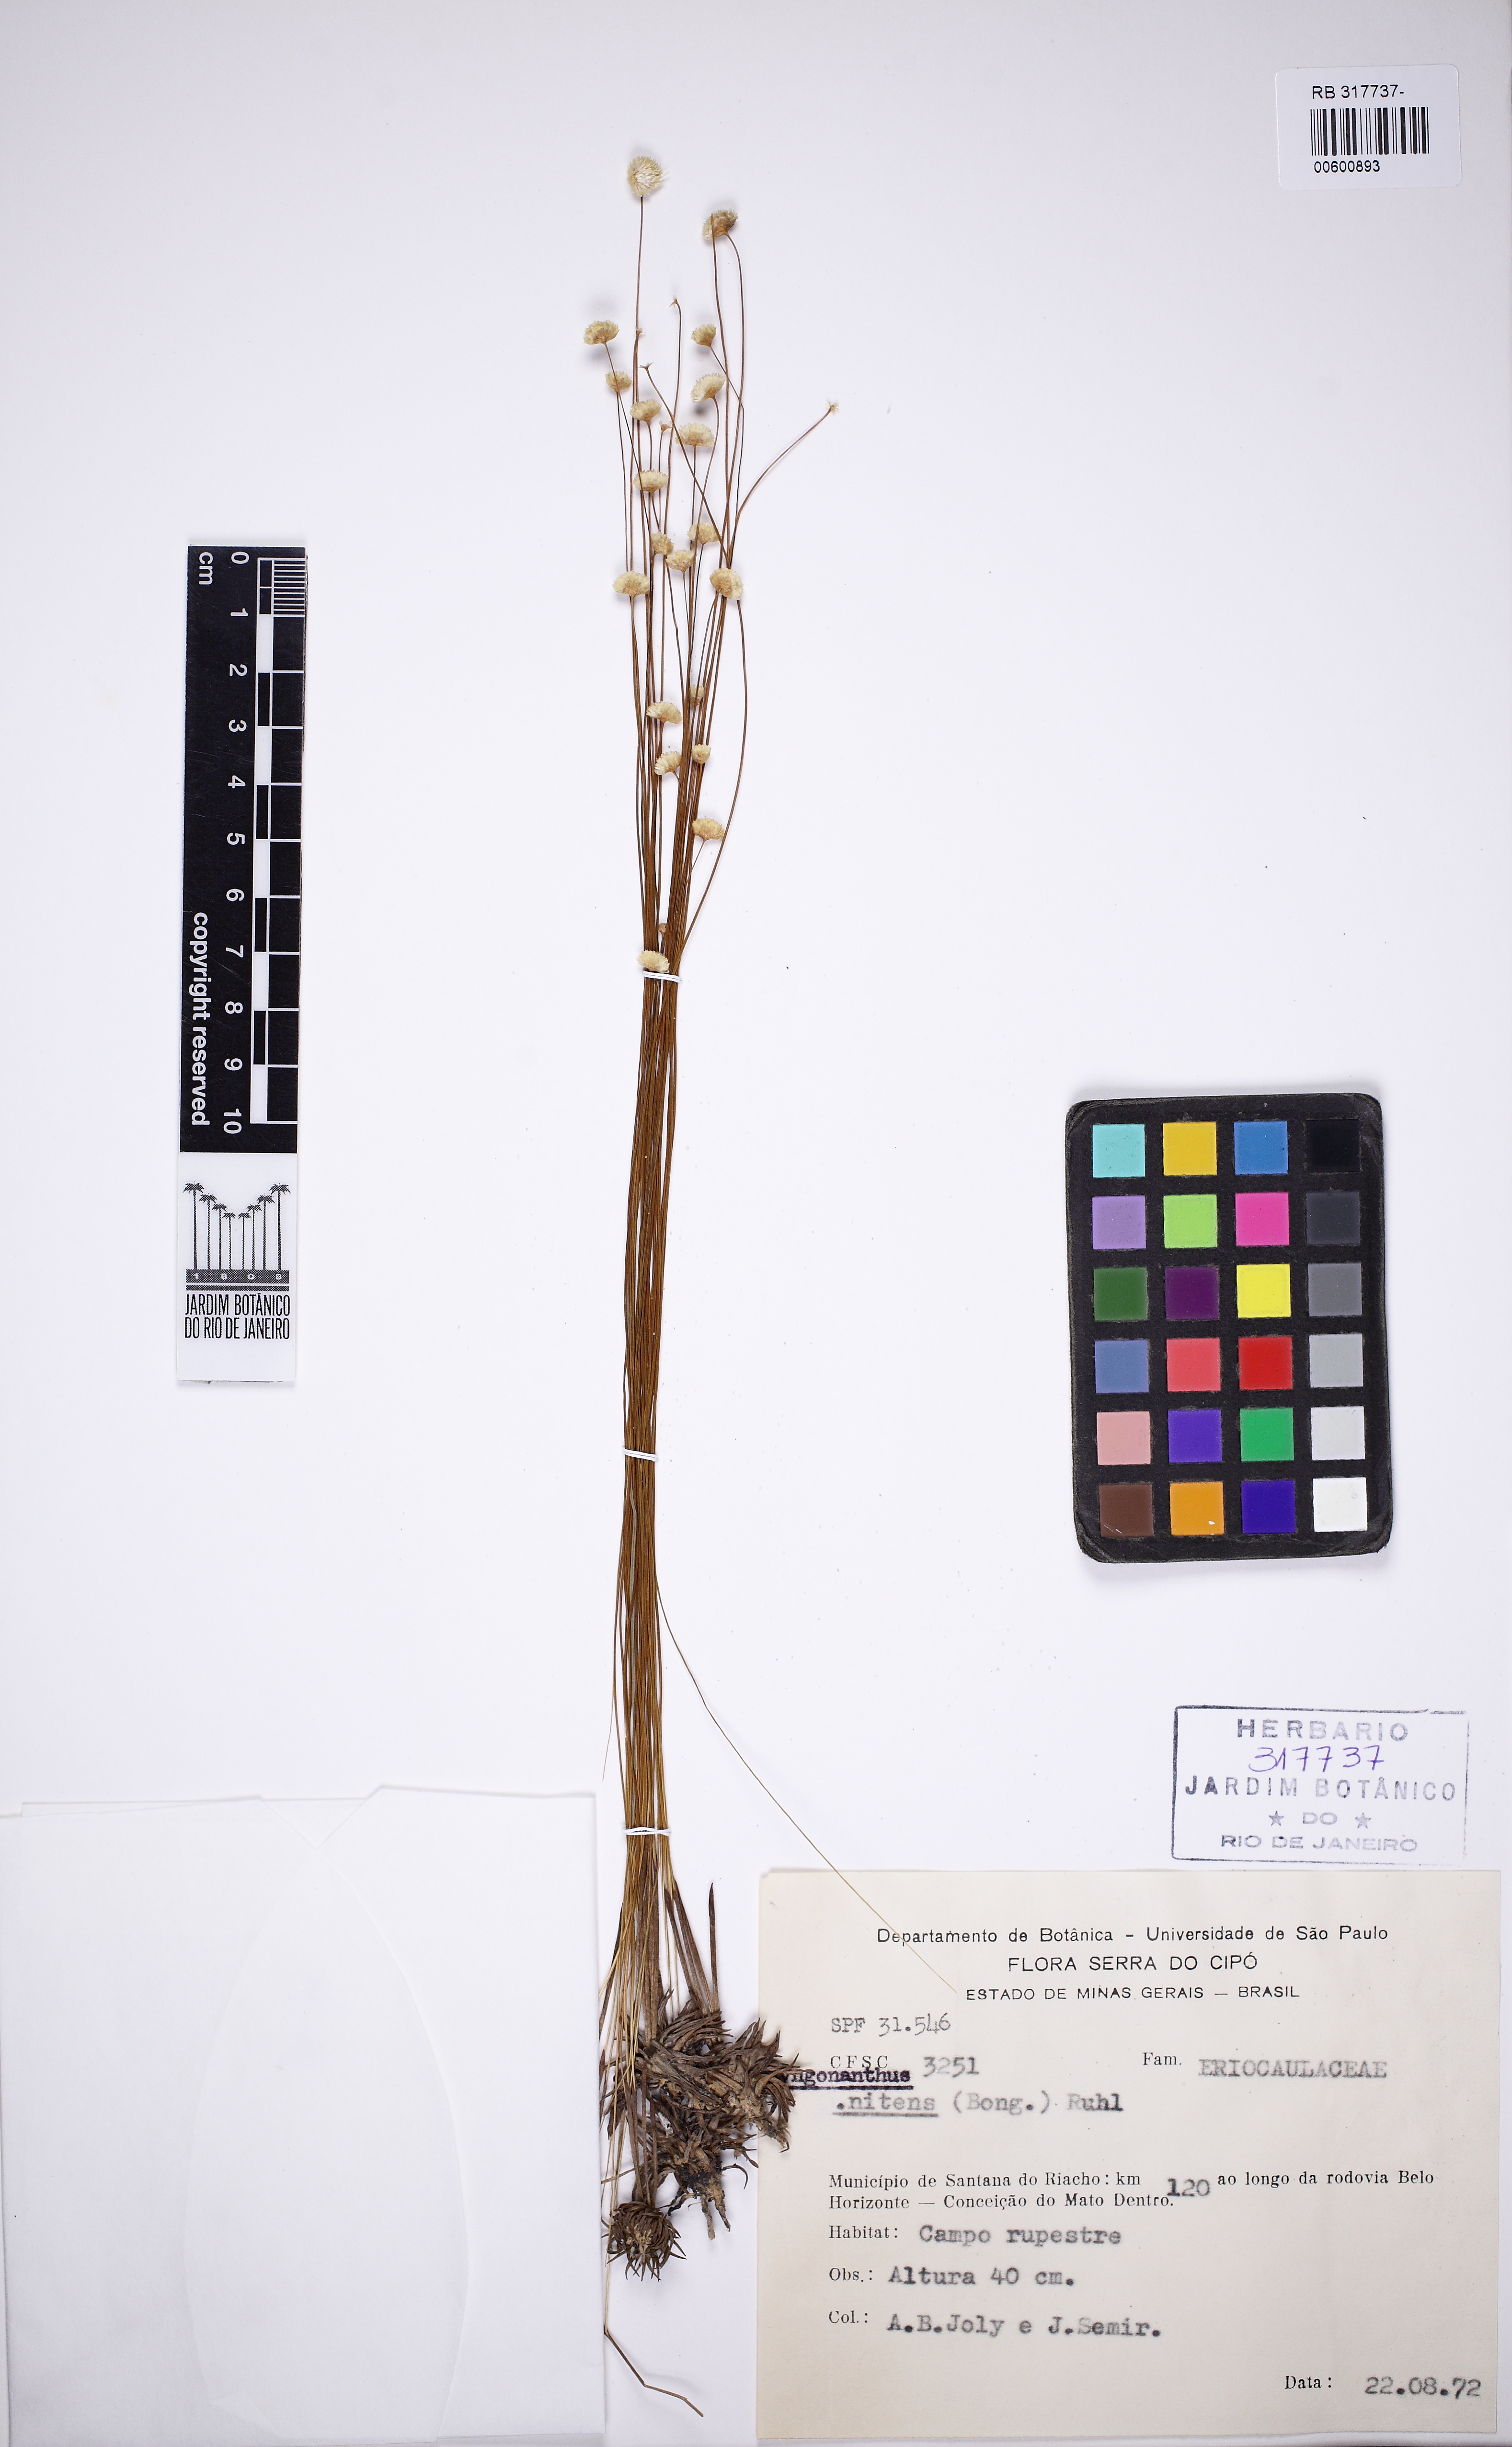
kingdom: Plantae
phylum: Tracheophyta
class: Liliopsida
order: Poales
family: Eriocaulaceae
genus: Syngonanthus
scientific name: Syngonanthus nitens
